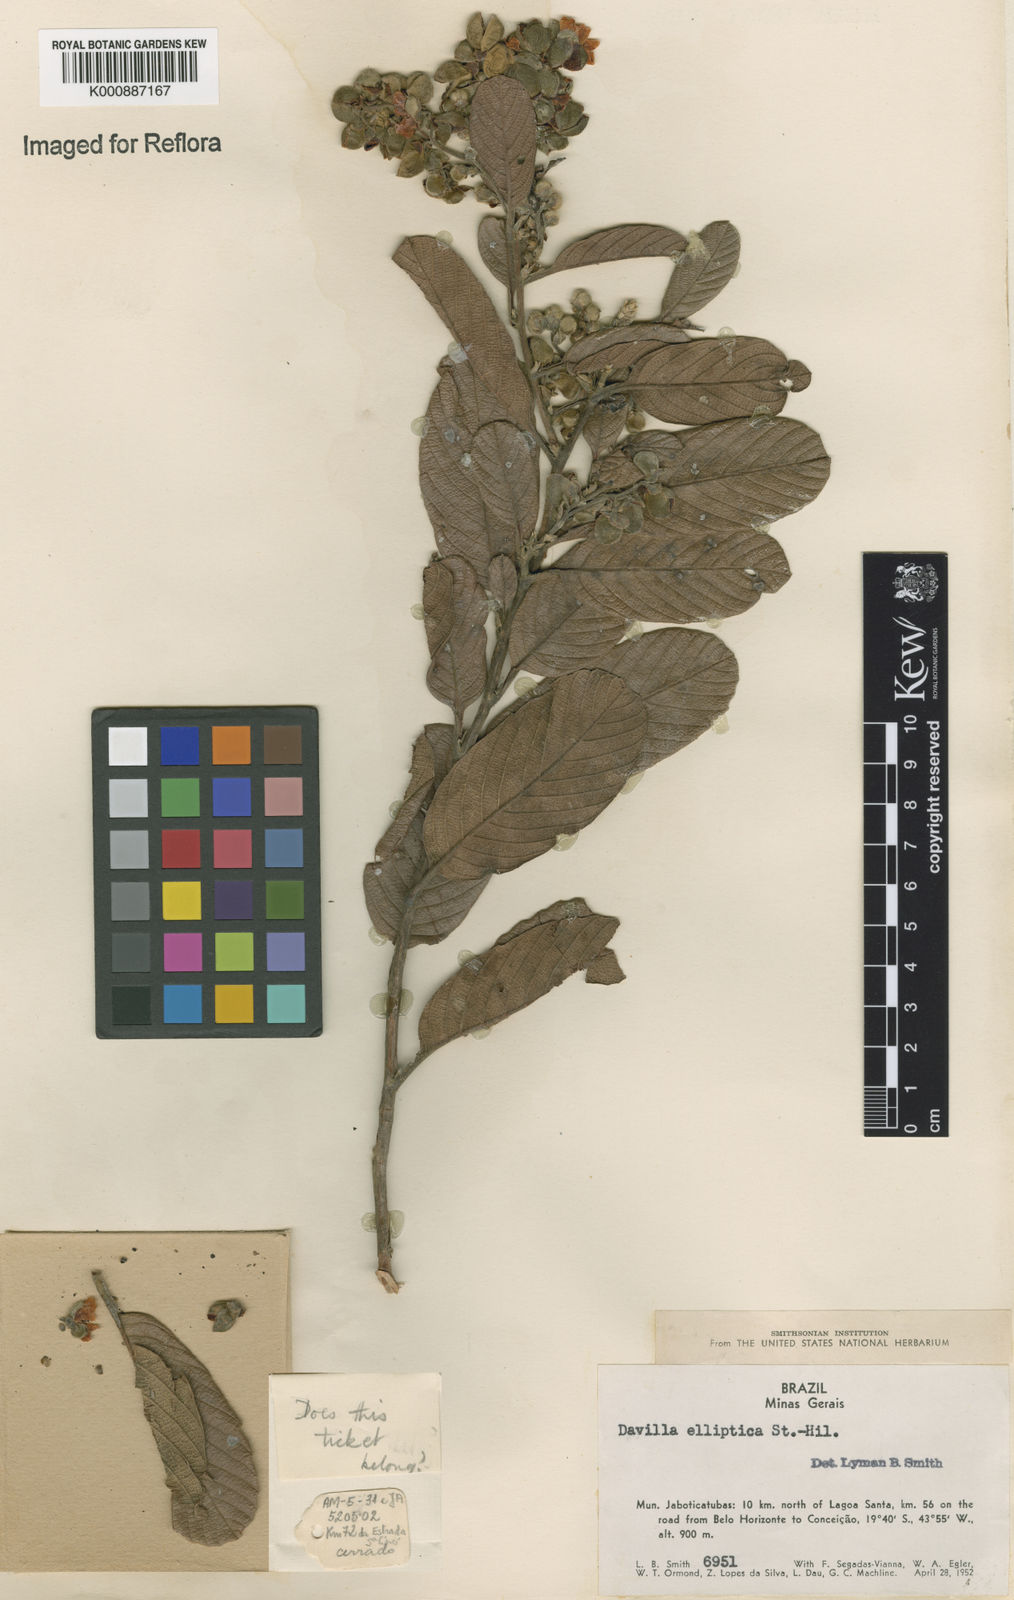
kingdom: Plantae
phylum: Tracheophyta
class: Magnoliopsida
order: Dilleniales
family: Dilleniaceae
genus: Davilla
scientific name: Davilla elliptica
